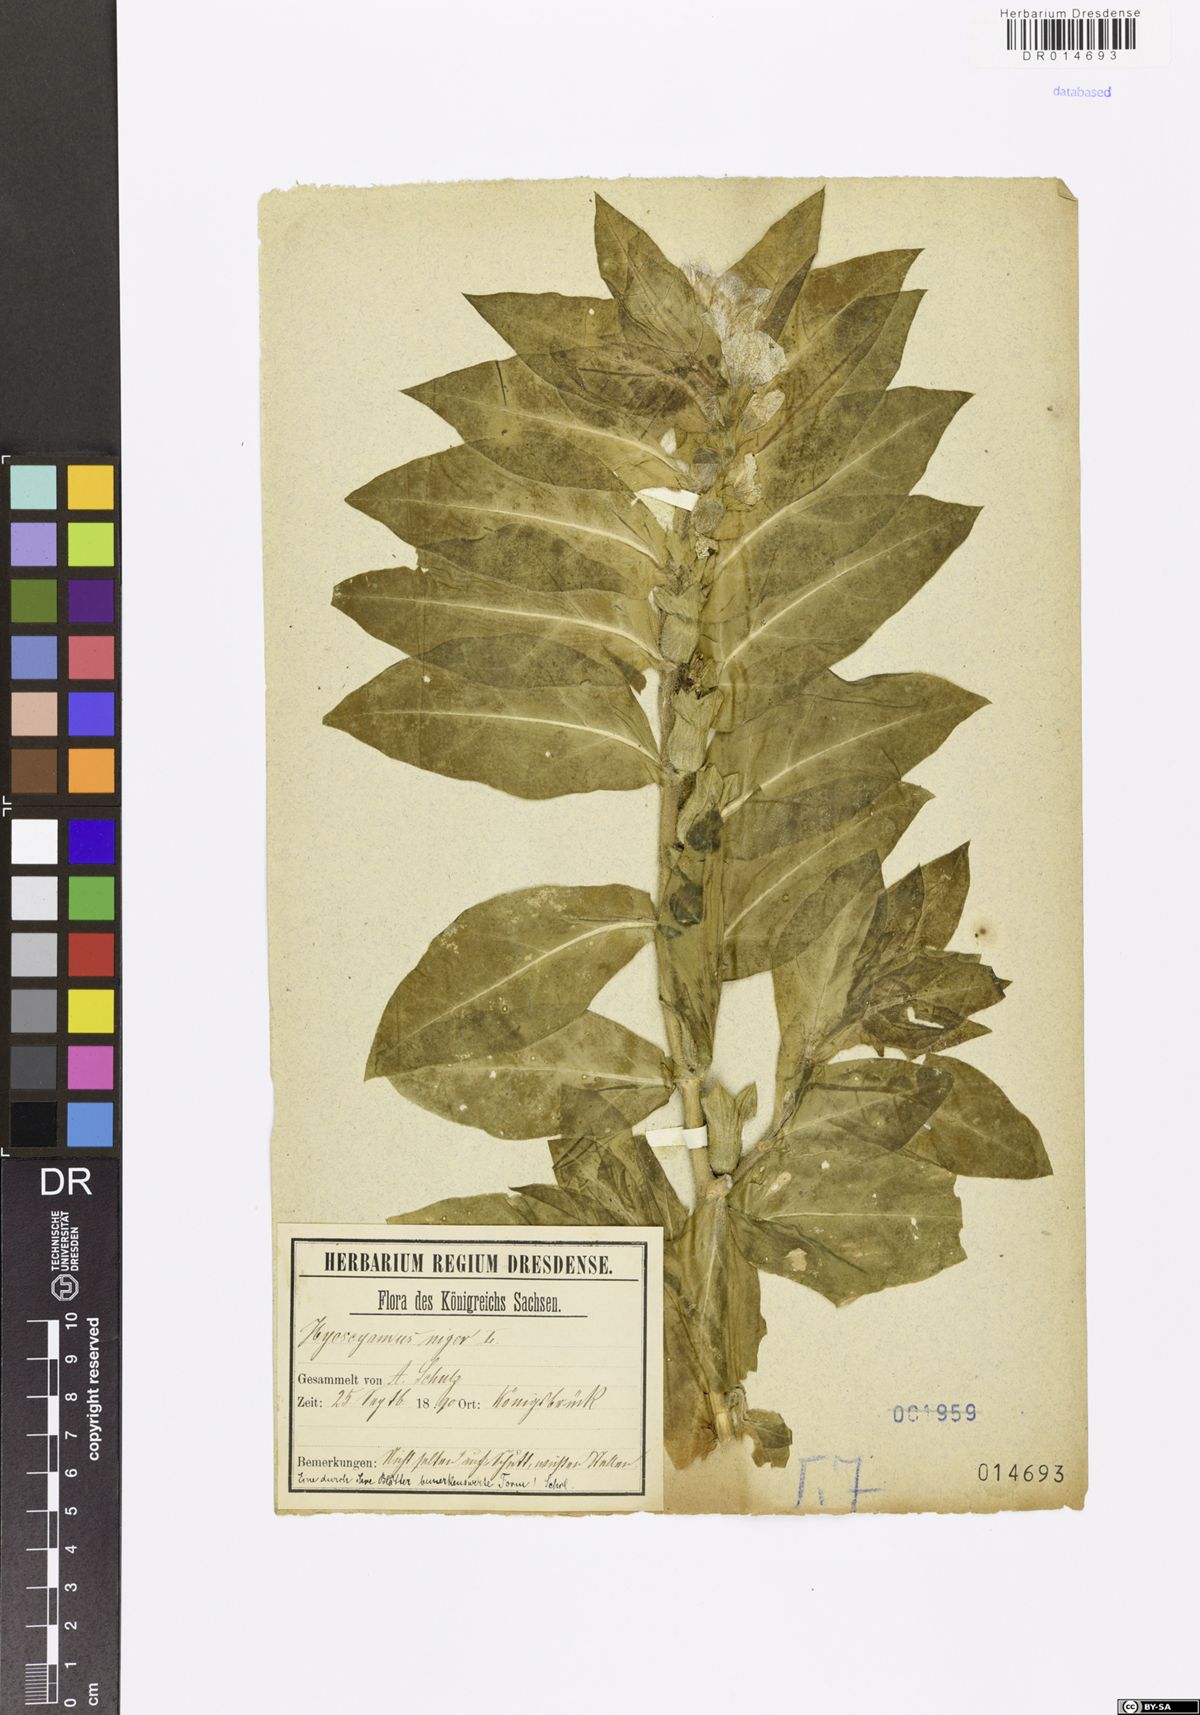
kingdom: Plantae
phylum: Tracheophyta
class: Magnoliopsida
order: Solanales
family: Solanaceae
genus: Hyoscyamus
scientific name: Hyoscyamus niger
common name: Henbane
